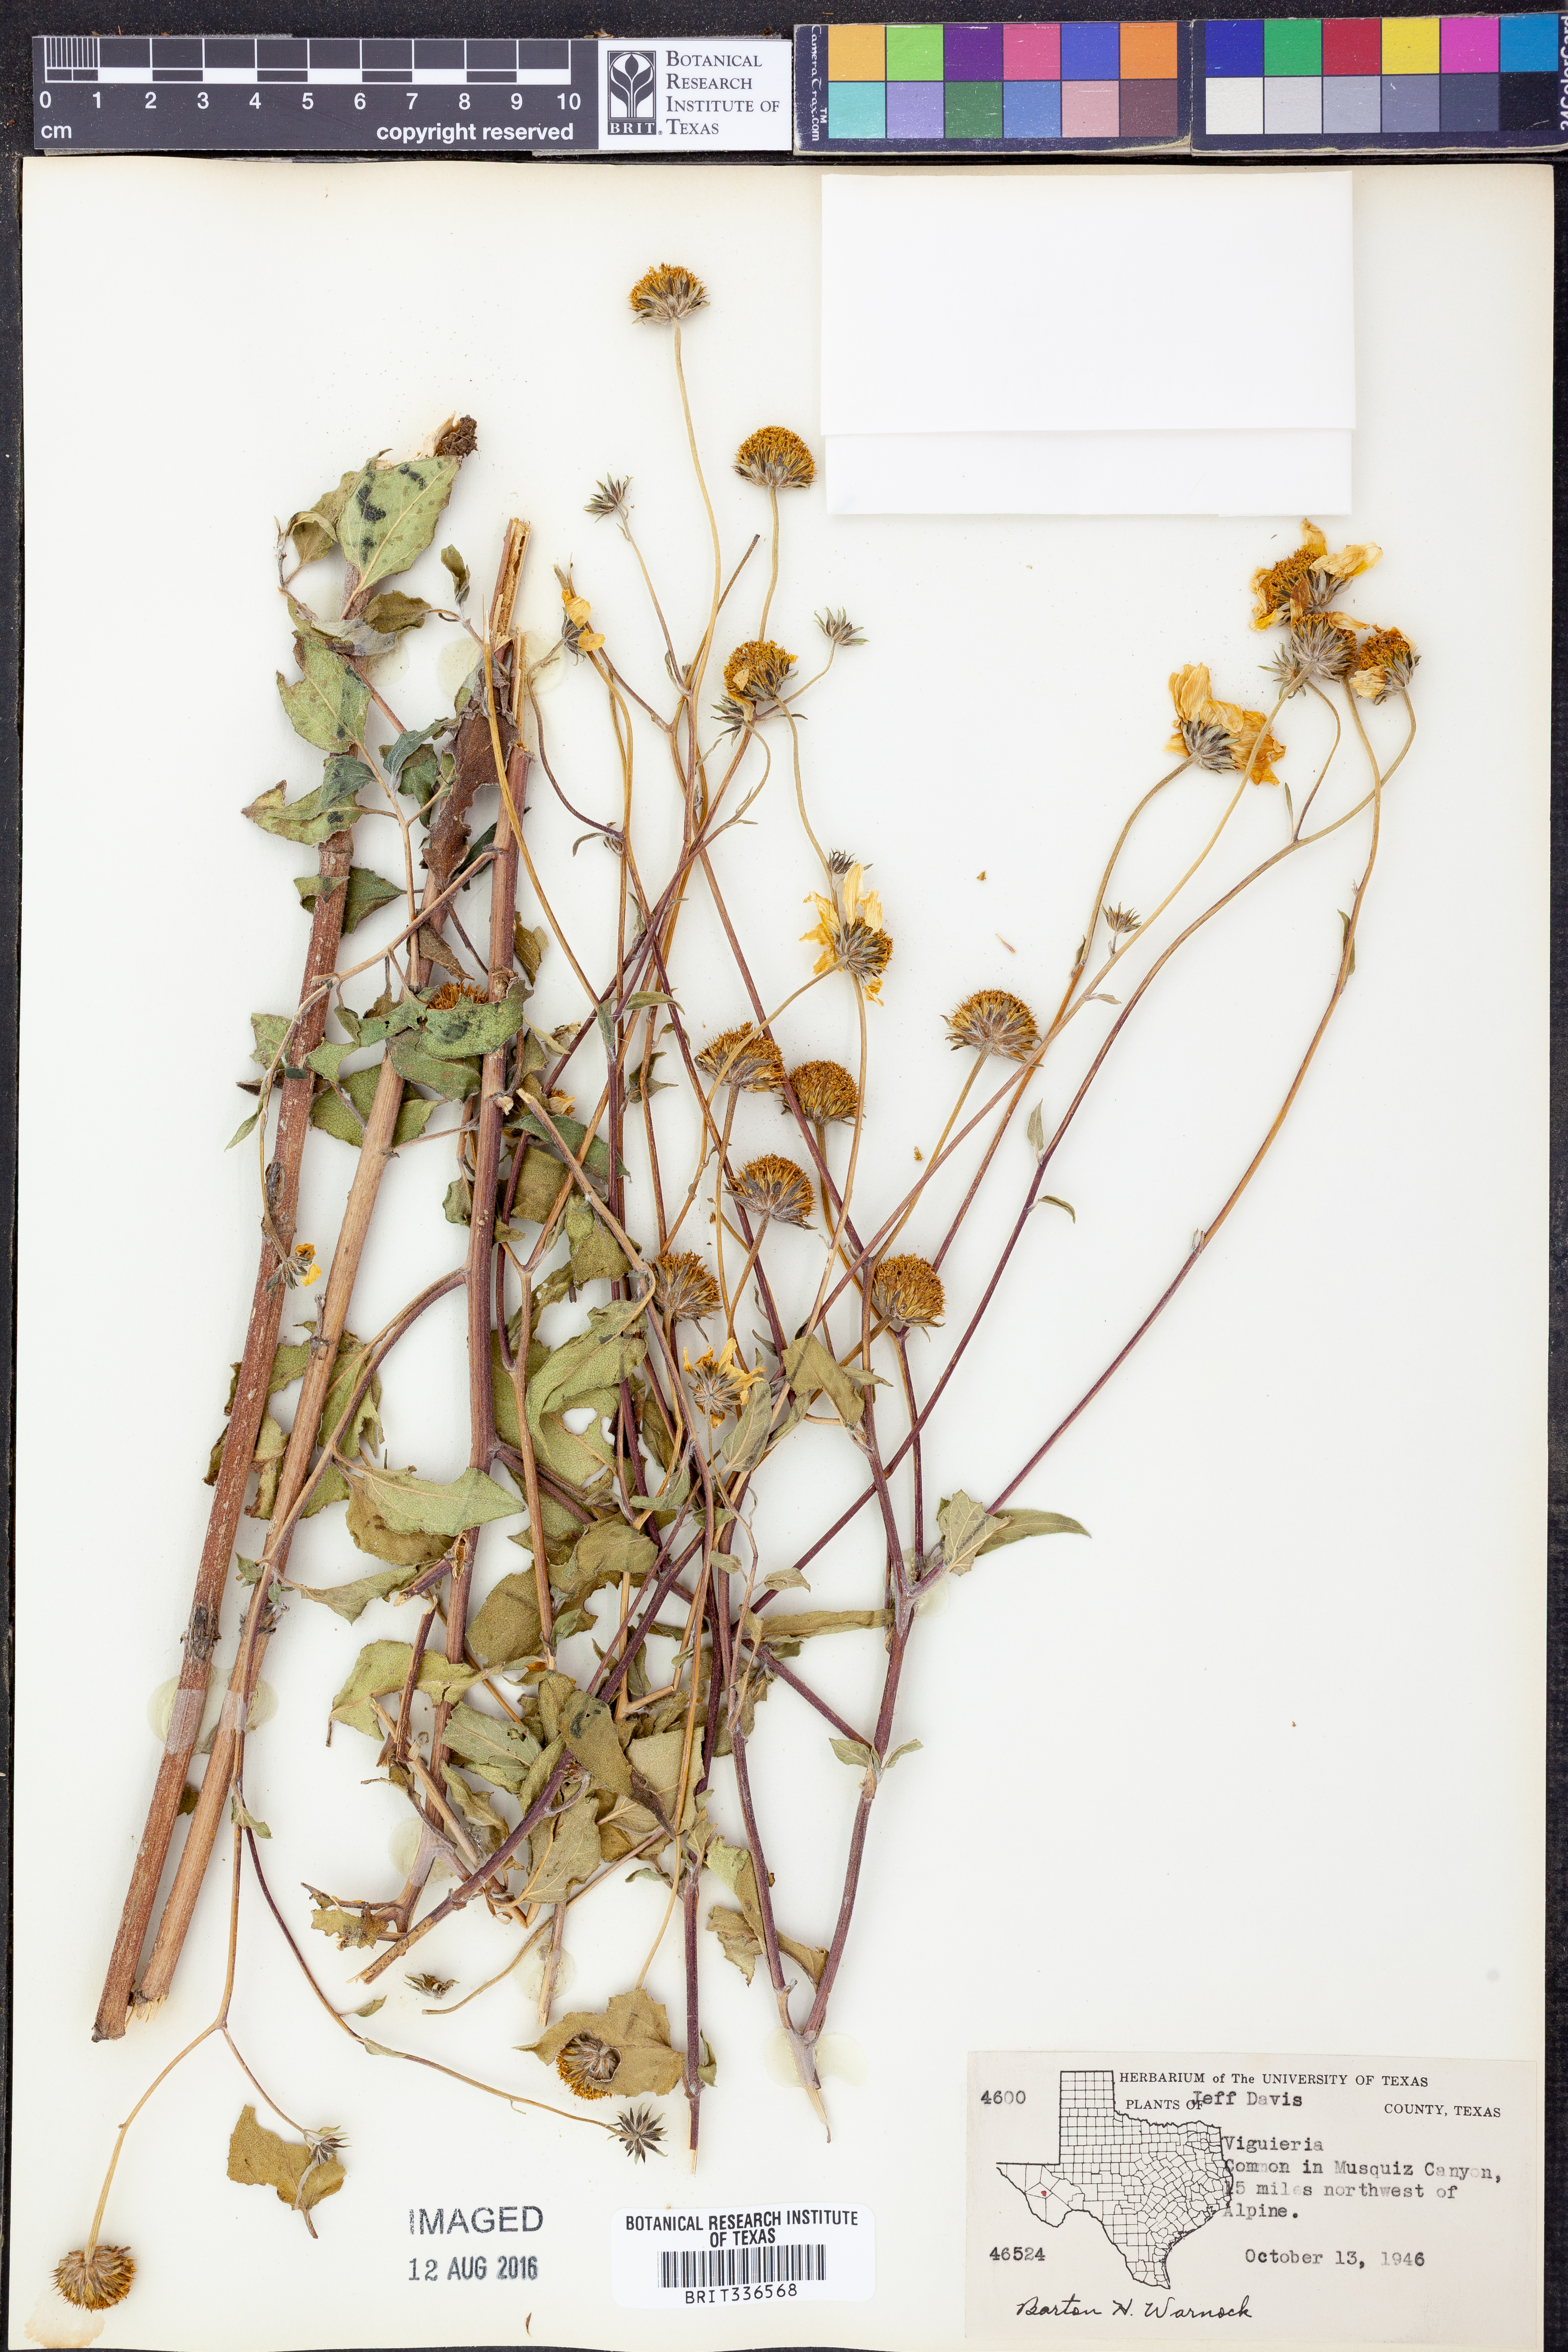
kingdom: Plantae
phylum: Tracheophyta
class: Magnoliopsida
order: Asterales
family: Asteraceae
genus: Viguiera
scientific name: Viguiera
